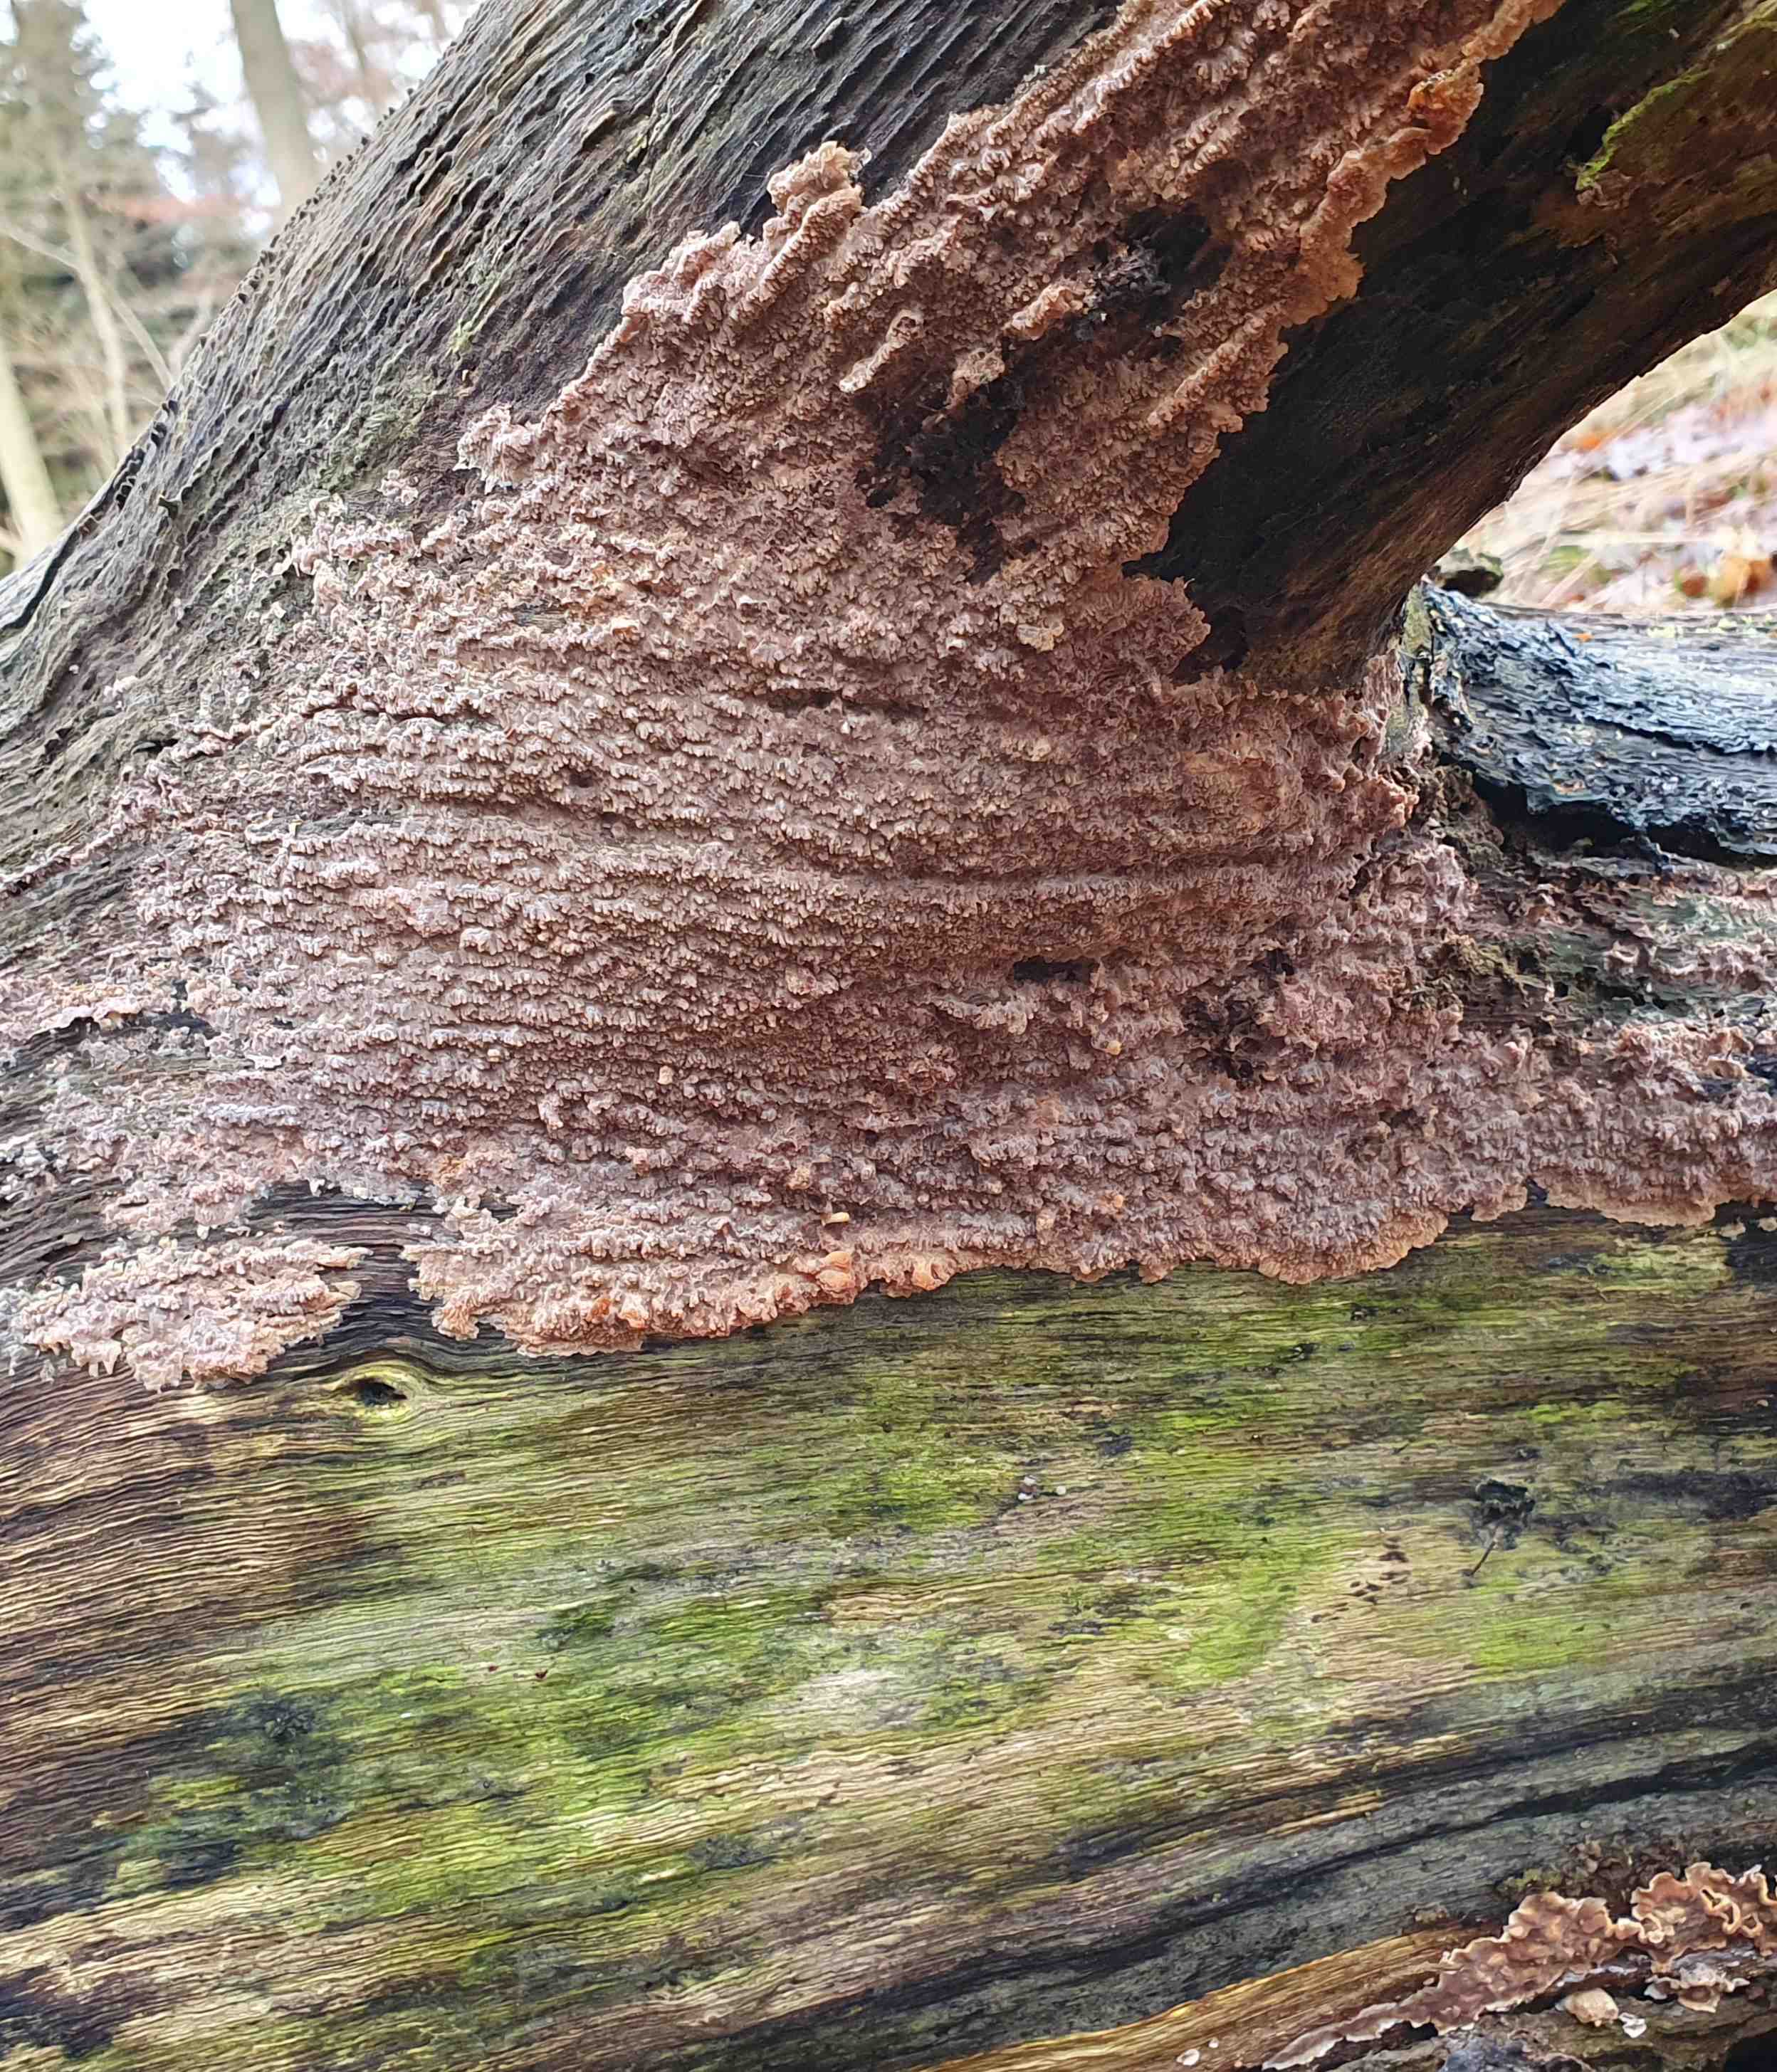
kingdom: Fungi
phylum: Basidiomycota
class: Agaricomycetes
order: Polyporales
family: Meruliaceae
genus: Phlebia
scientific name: Phlebia radiata
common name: stråle-åresvamp
